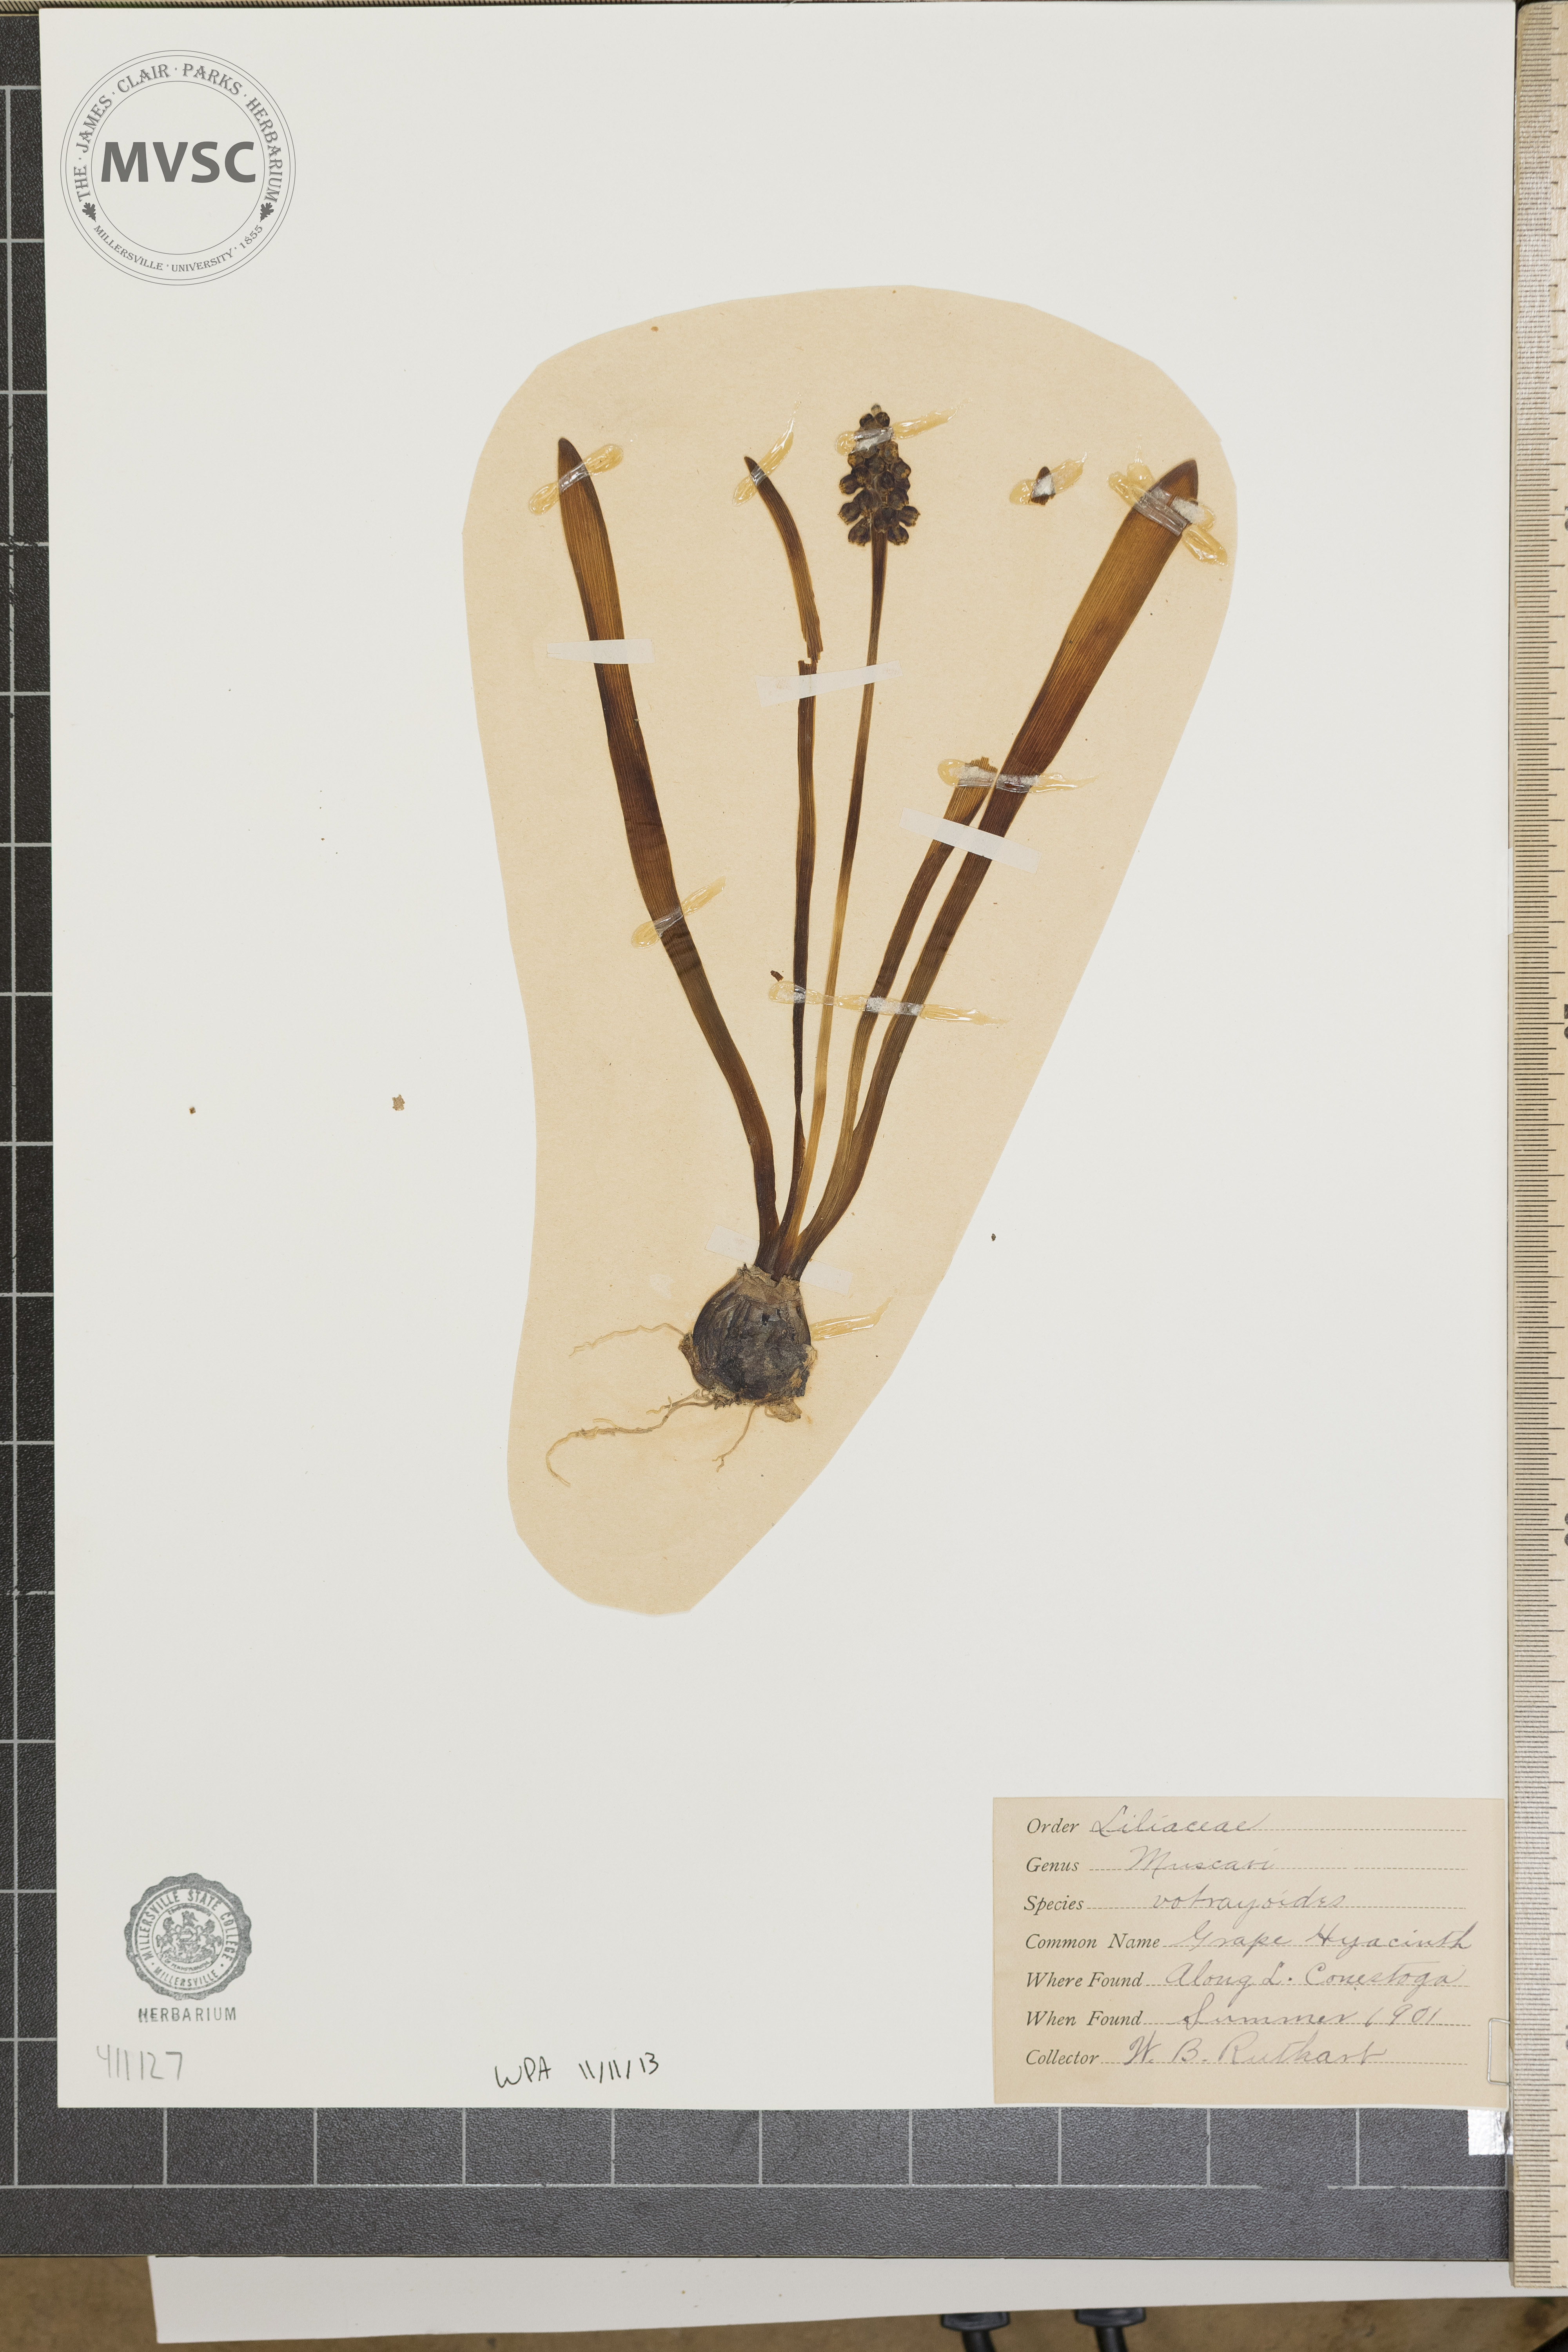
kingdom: Plantae
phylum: Tracheophyta
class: Liliopsida
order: Asparagales
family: Asparagaceae
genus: Muscari
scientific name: Muscari botryoides
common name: Compact grape-hyacinth
